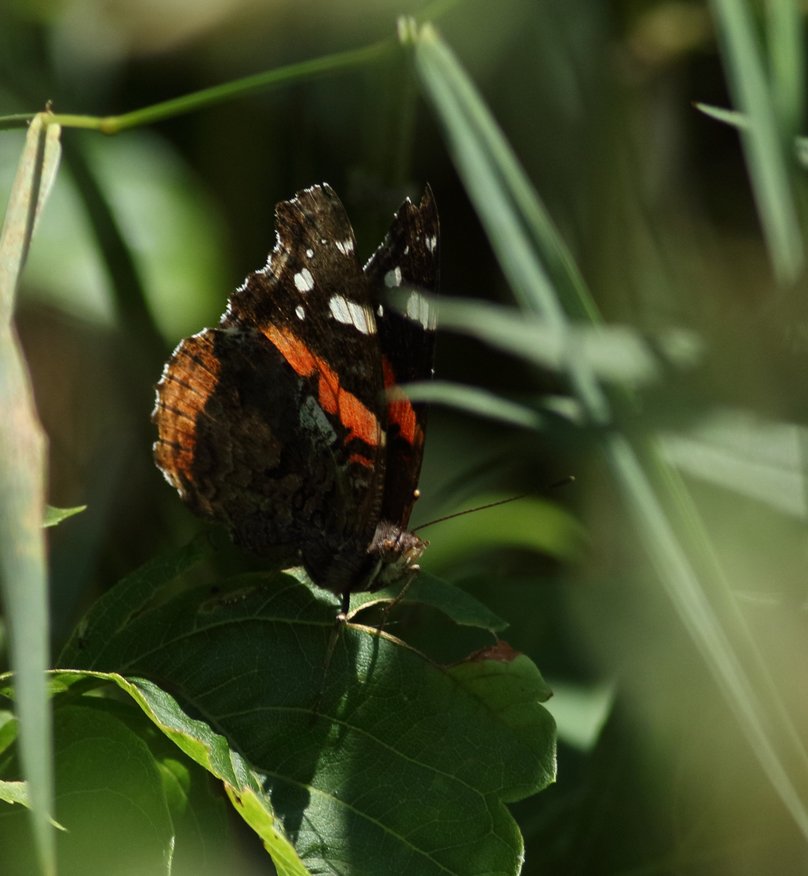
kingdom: Animalia
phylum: Arthropoda
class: Insecta
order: Lepidoptera
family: Nymphalidae
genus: Vanessa
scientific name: Vanessa atalanta
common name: Red Admiral
